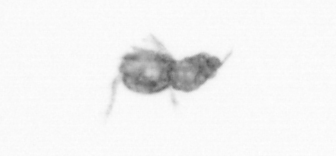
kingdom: Animalia
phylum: Arthropoda
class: Copepoda
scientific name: Copepoda
